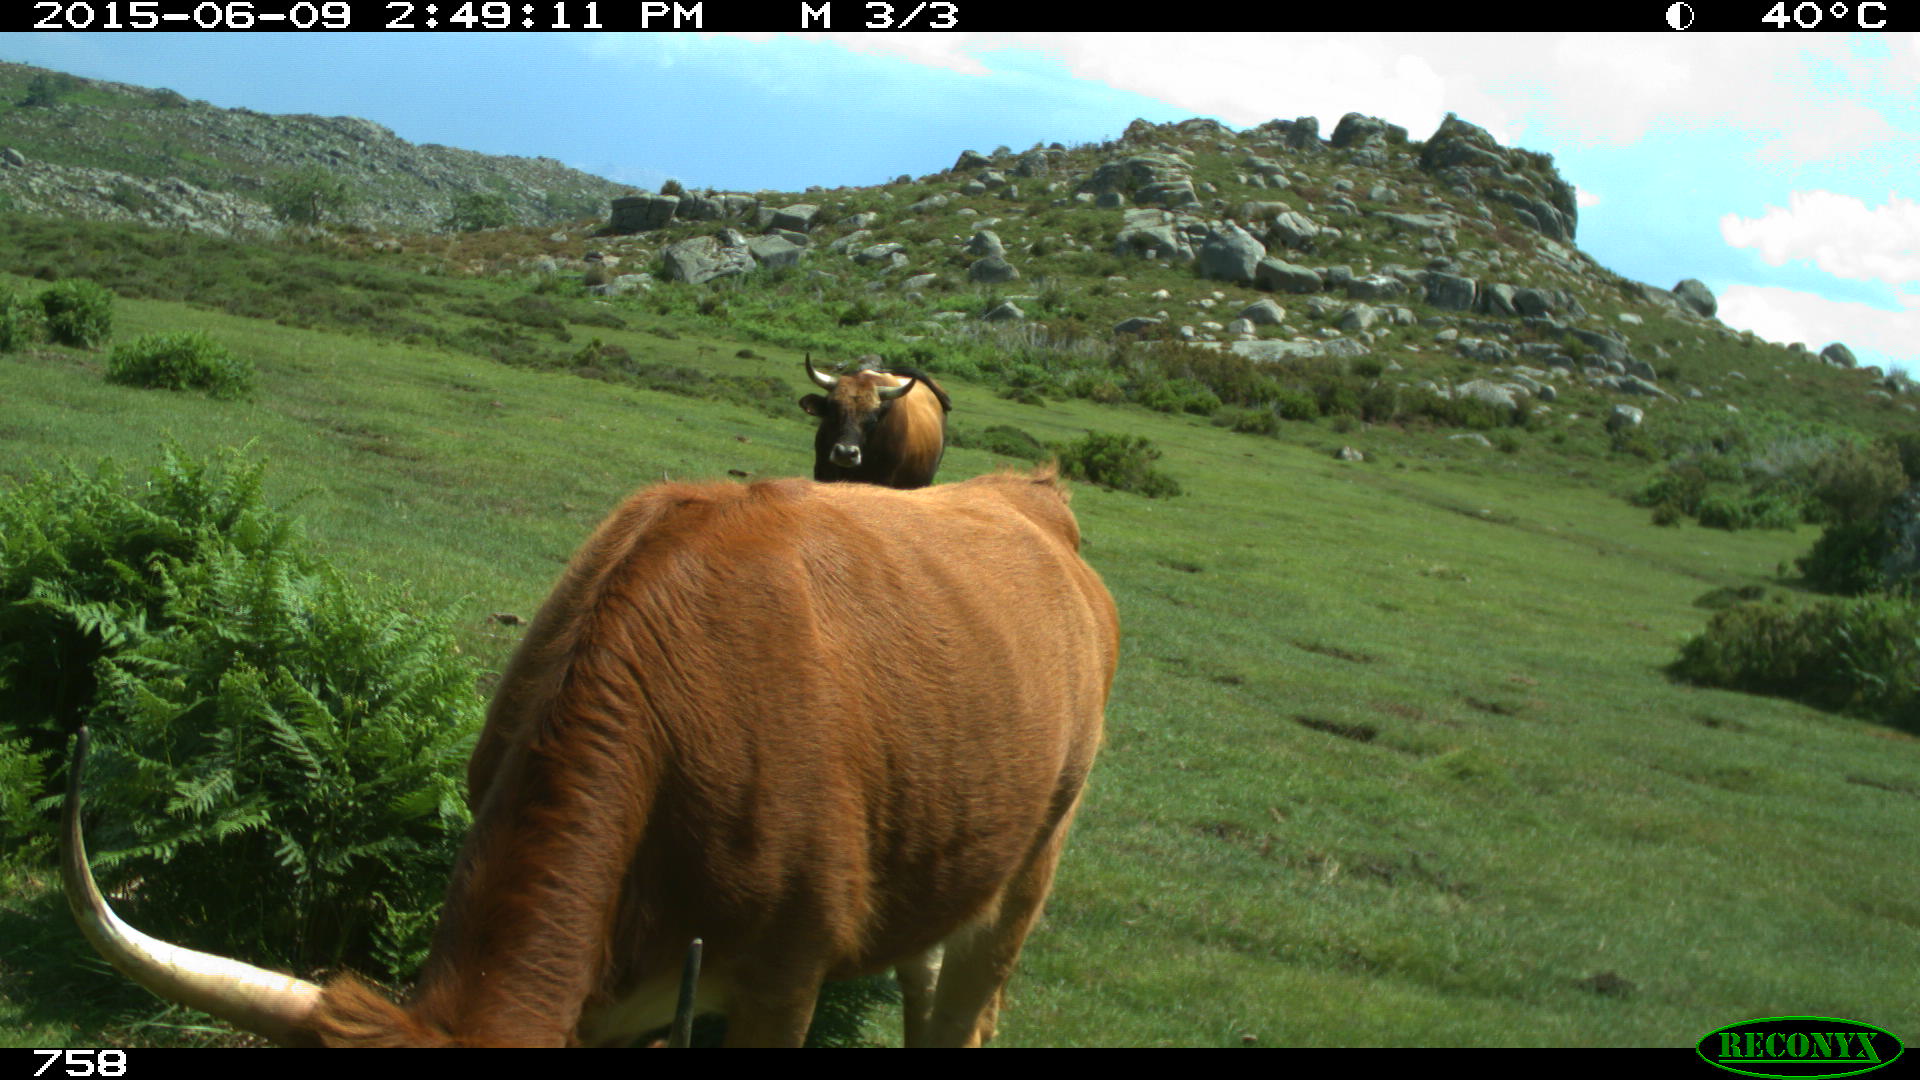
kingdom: Animalia
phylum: Chordata
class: Mammalia
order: Artiodactyla
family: Bovidae
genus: Bos
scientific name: Bos taurus
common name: Domesticated cattle
